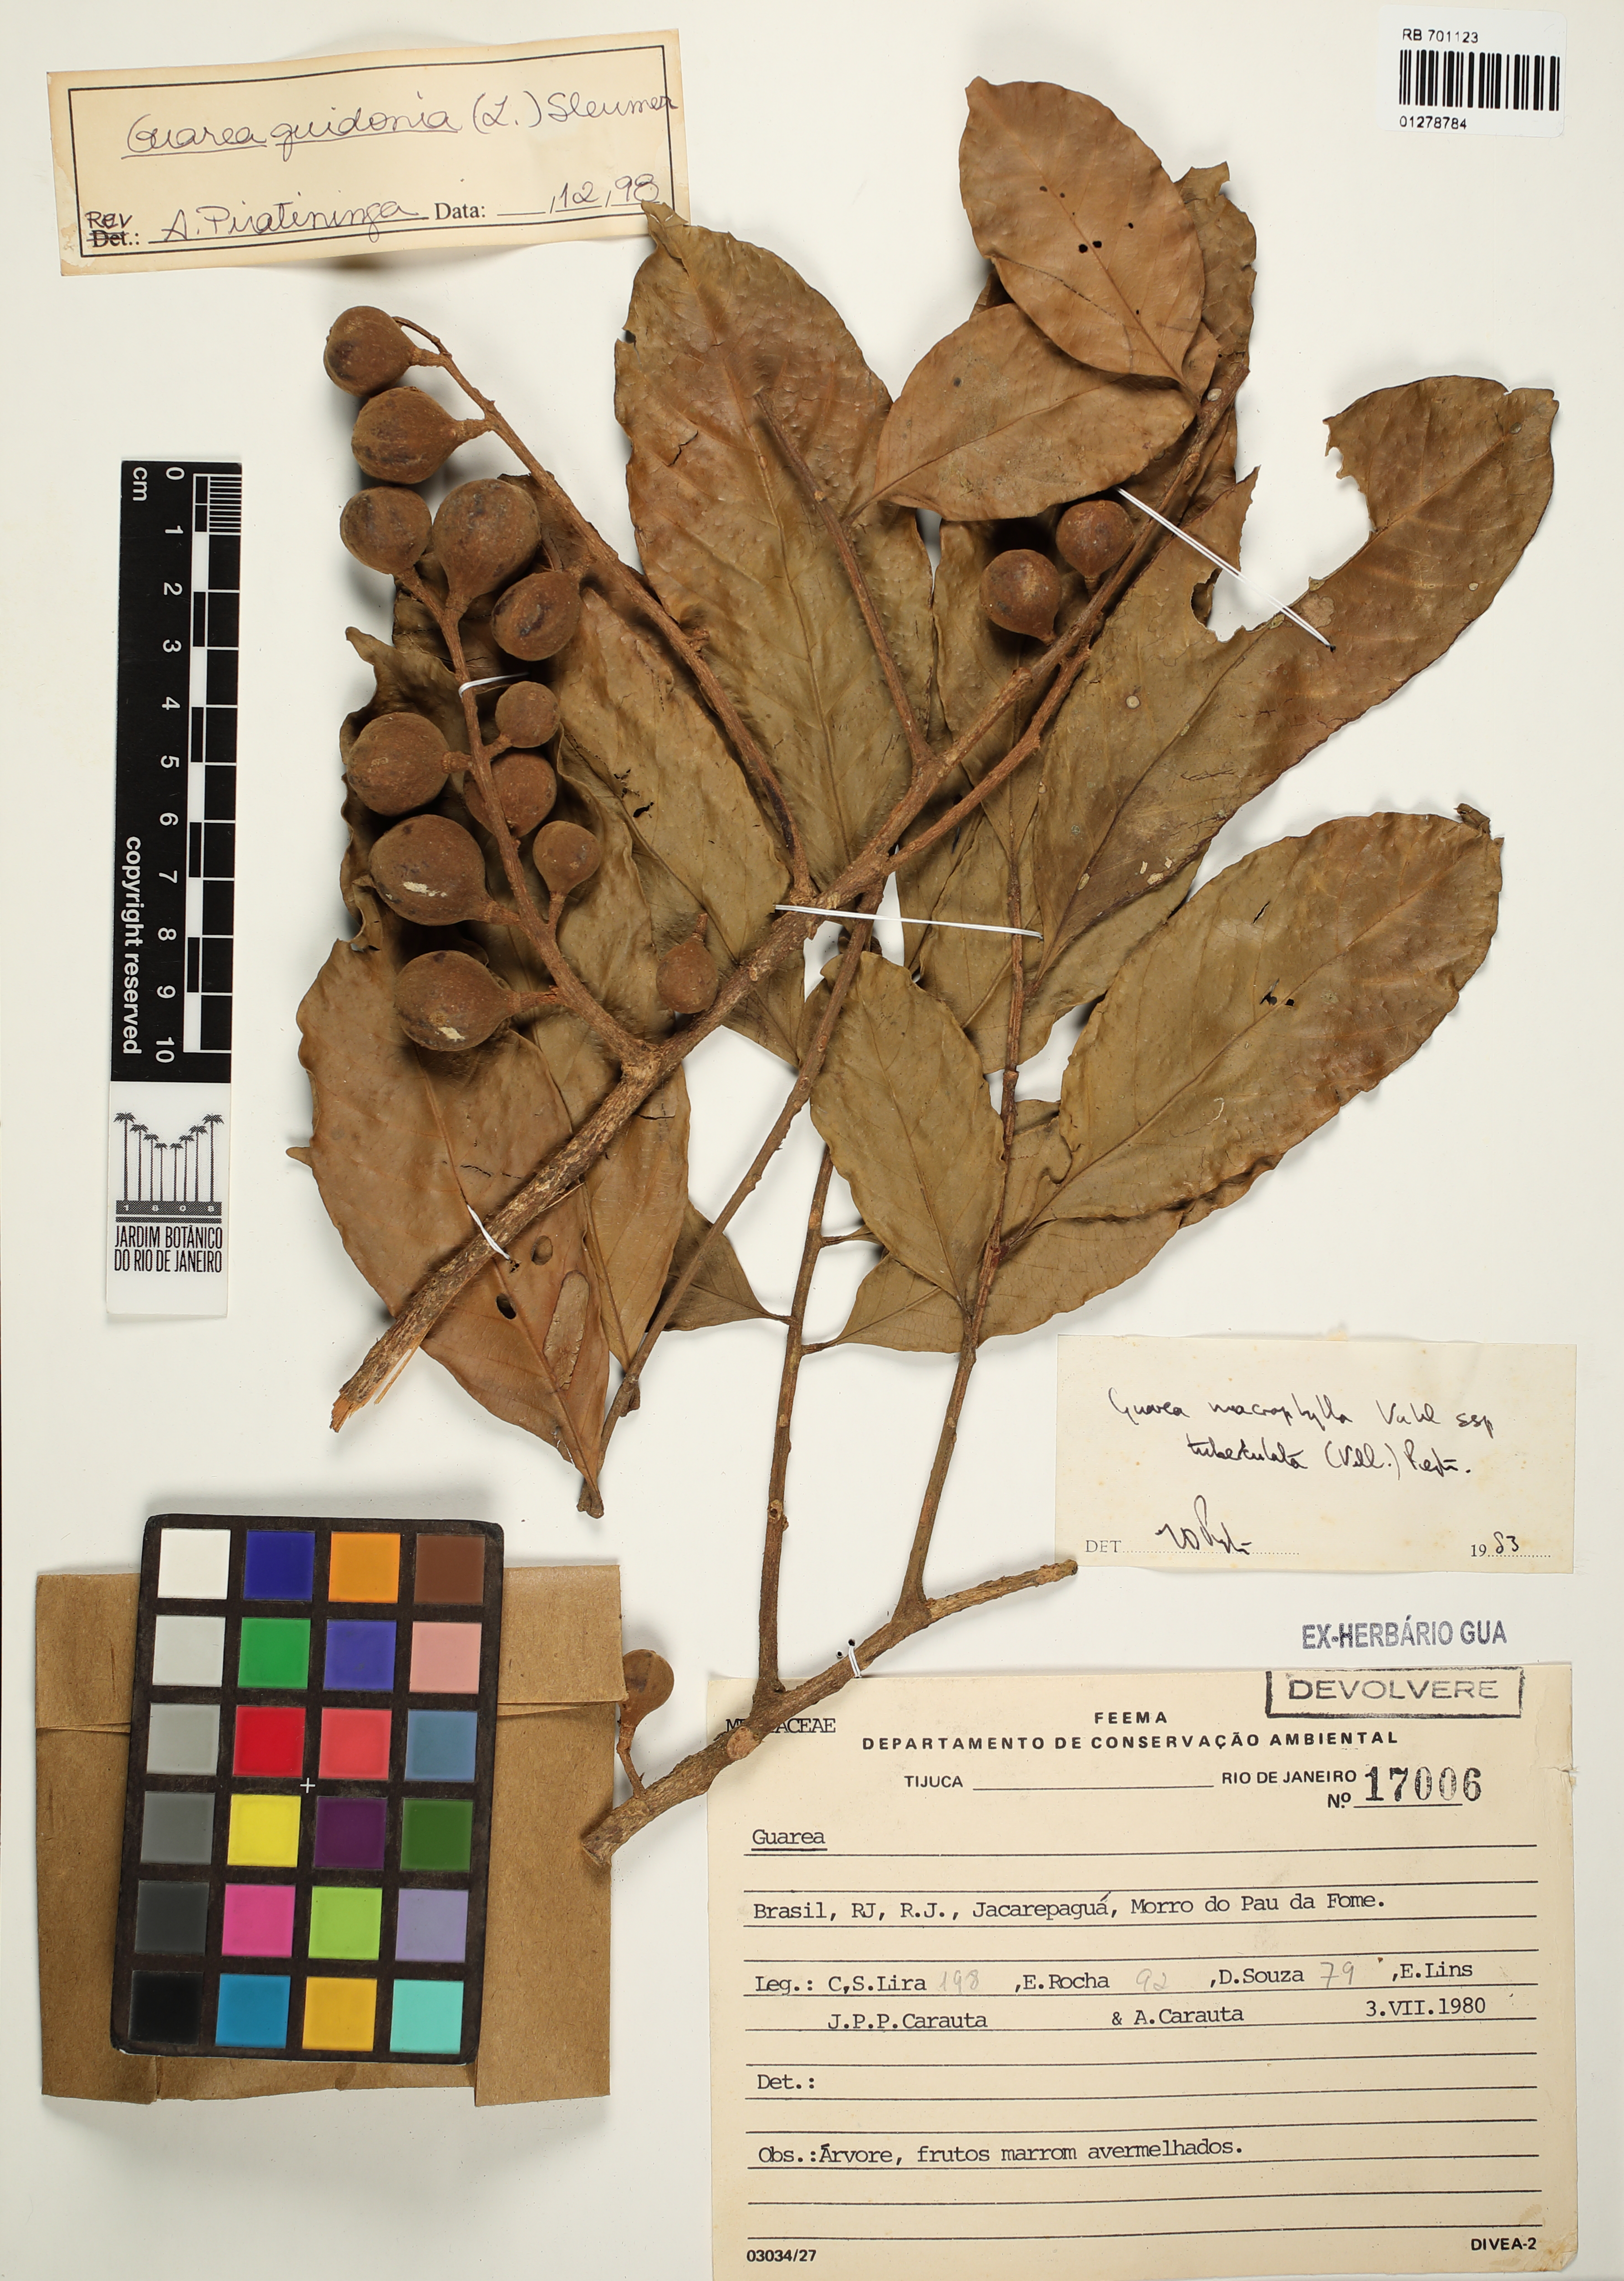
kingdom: Plantae
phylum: Tracheophyta
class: Magnoliopsida
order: Sapindales
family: Meliaceae
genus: Guarea
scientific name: Guarea macrophylla
